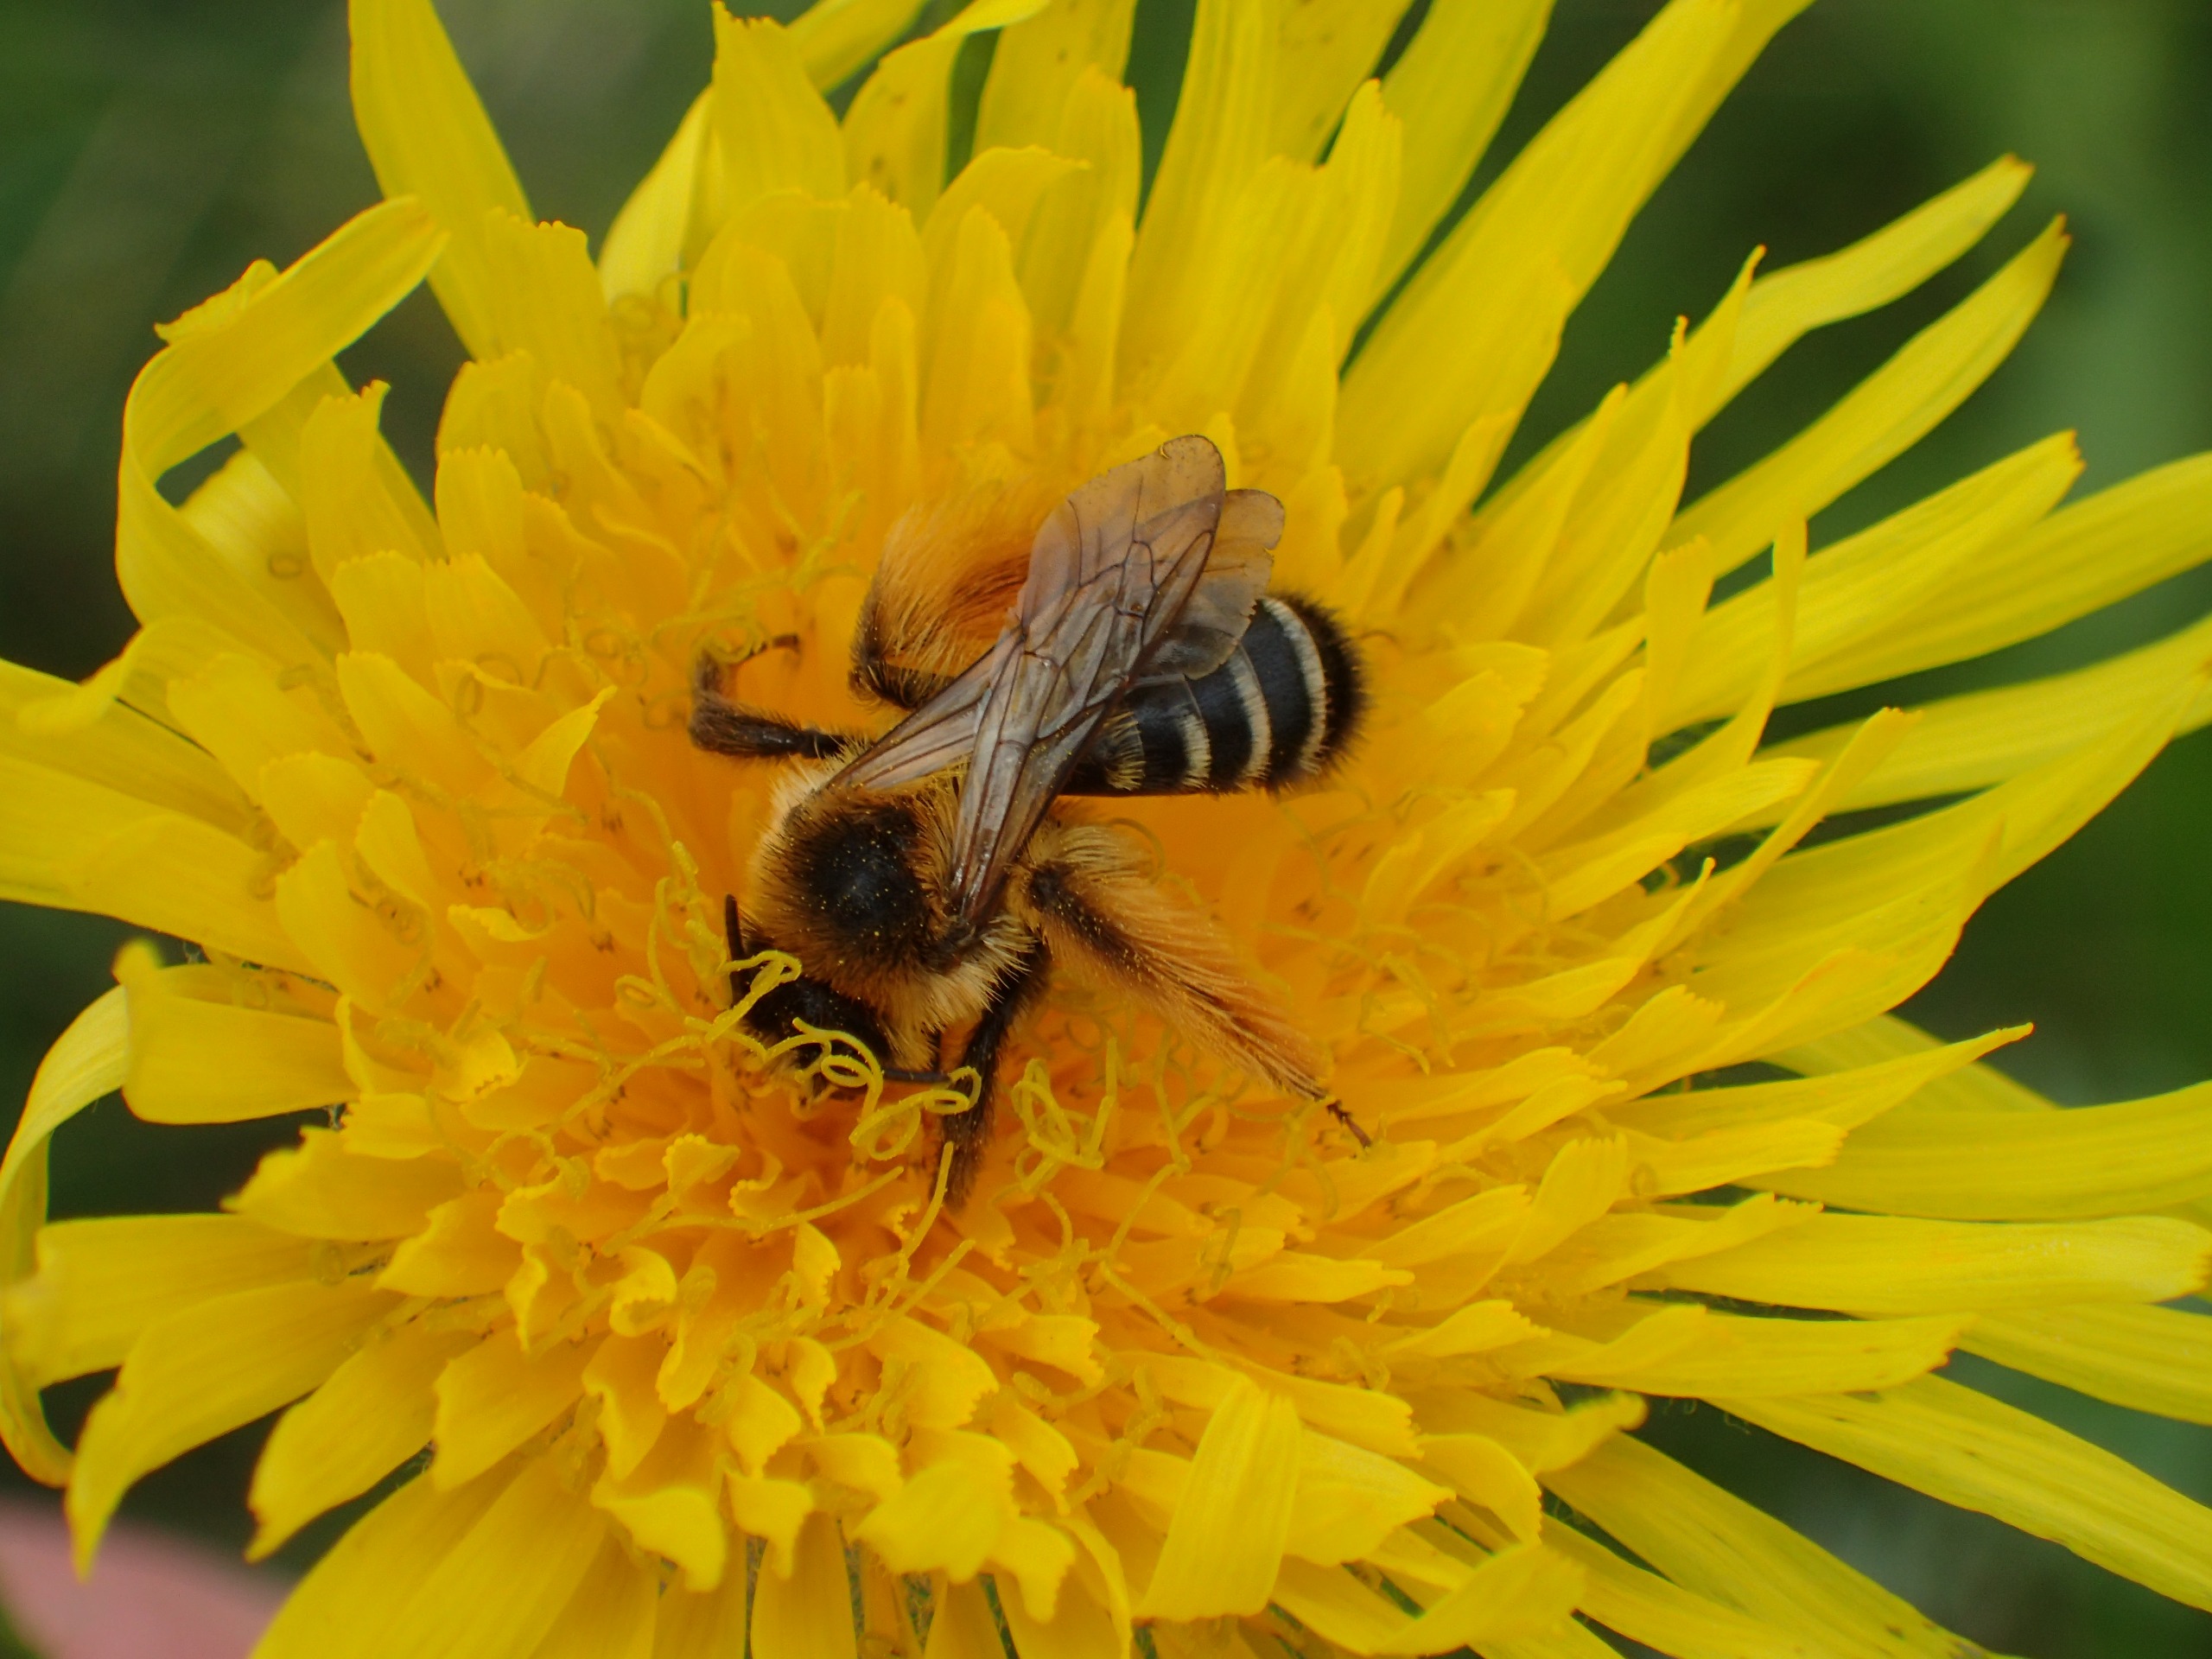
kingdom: Animalia
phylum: Arthropoda
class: Insecta
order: Hymenoptera
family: Melittidae
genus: Dasypoda
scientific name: Dasypoda hirtipes
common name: Pragtbuksebi
